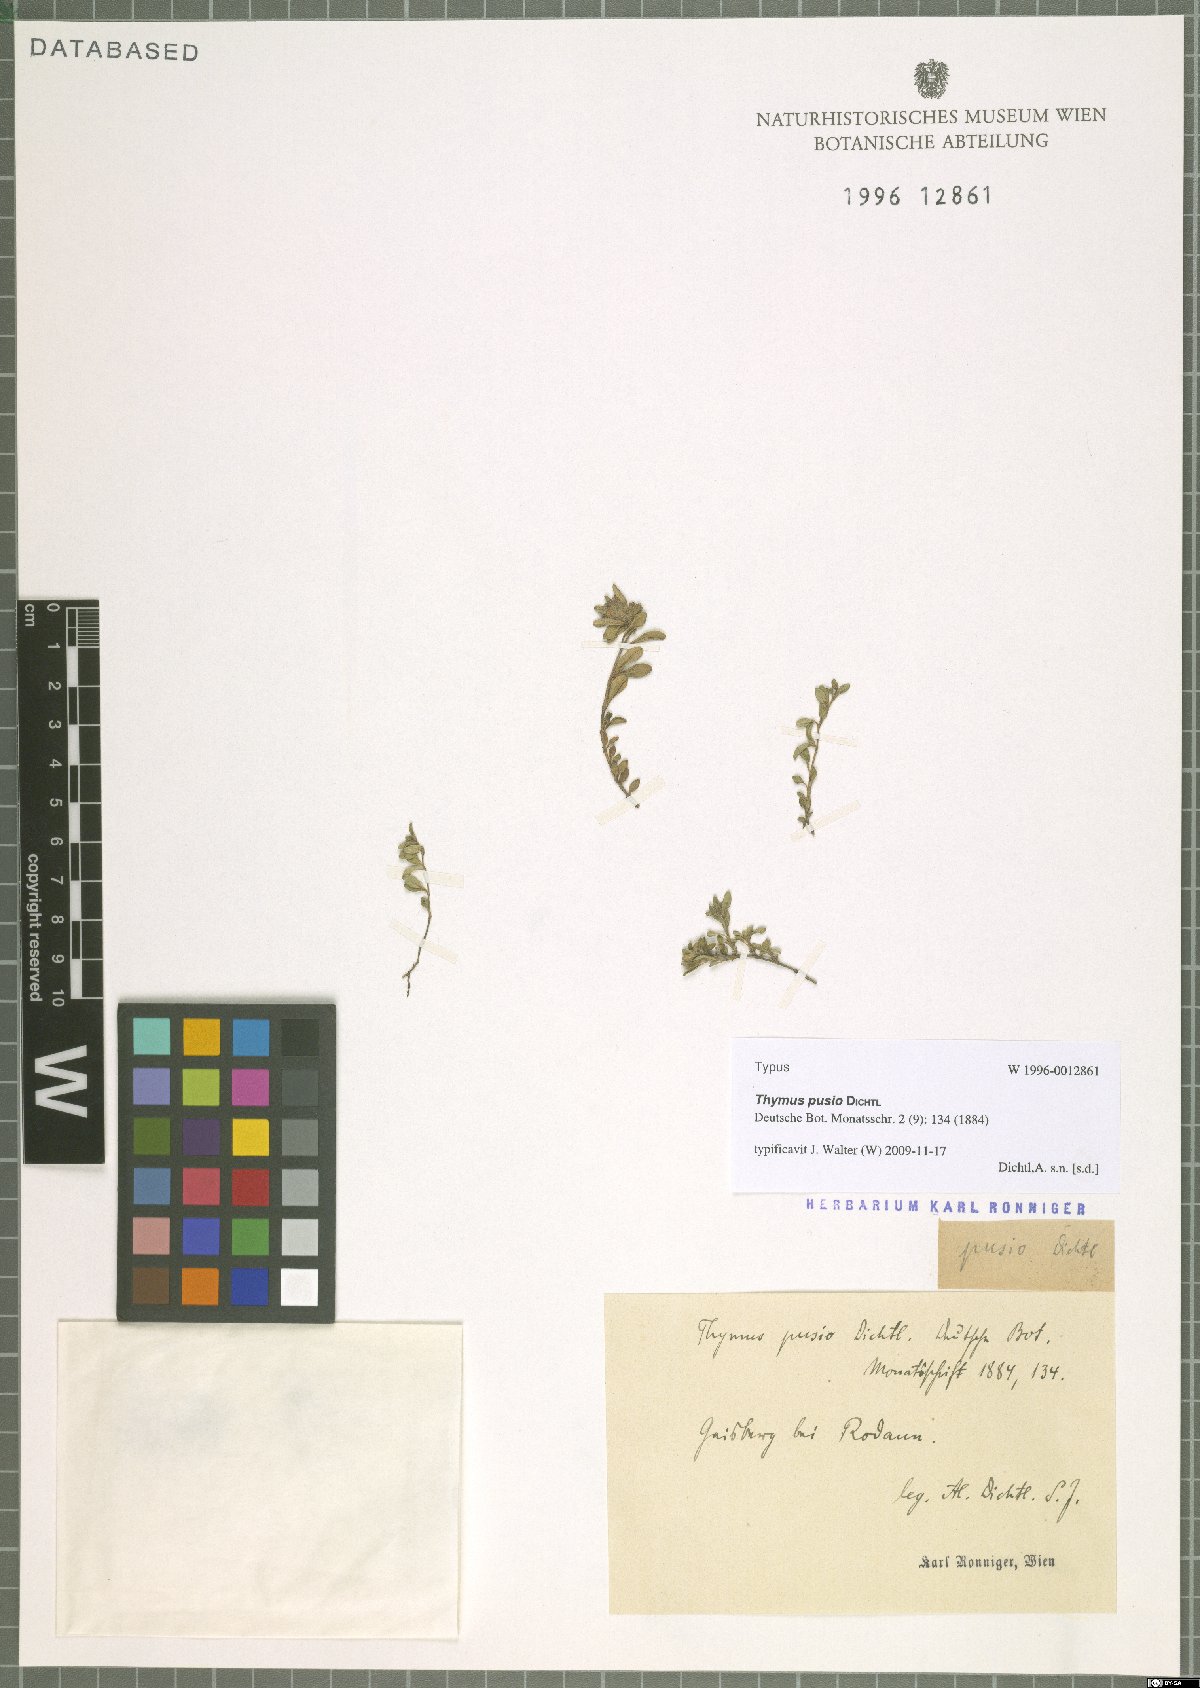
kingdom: Plantae
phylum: Tracheophyta
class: Magnoliopsida
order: Lamiales
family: Lamiaceae
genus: Thymus
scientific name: Thymus serpyllum
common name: Breckland thyme
